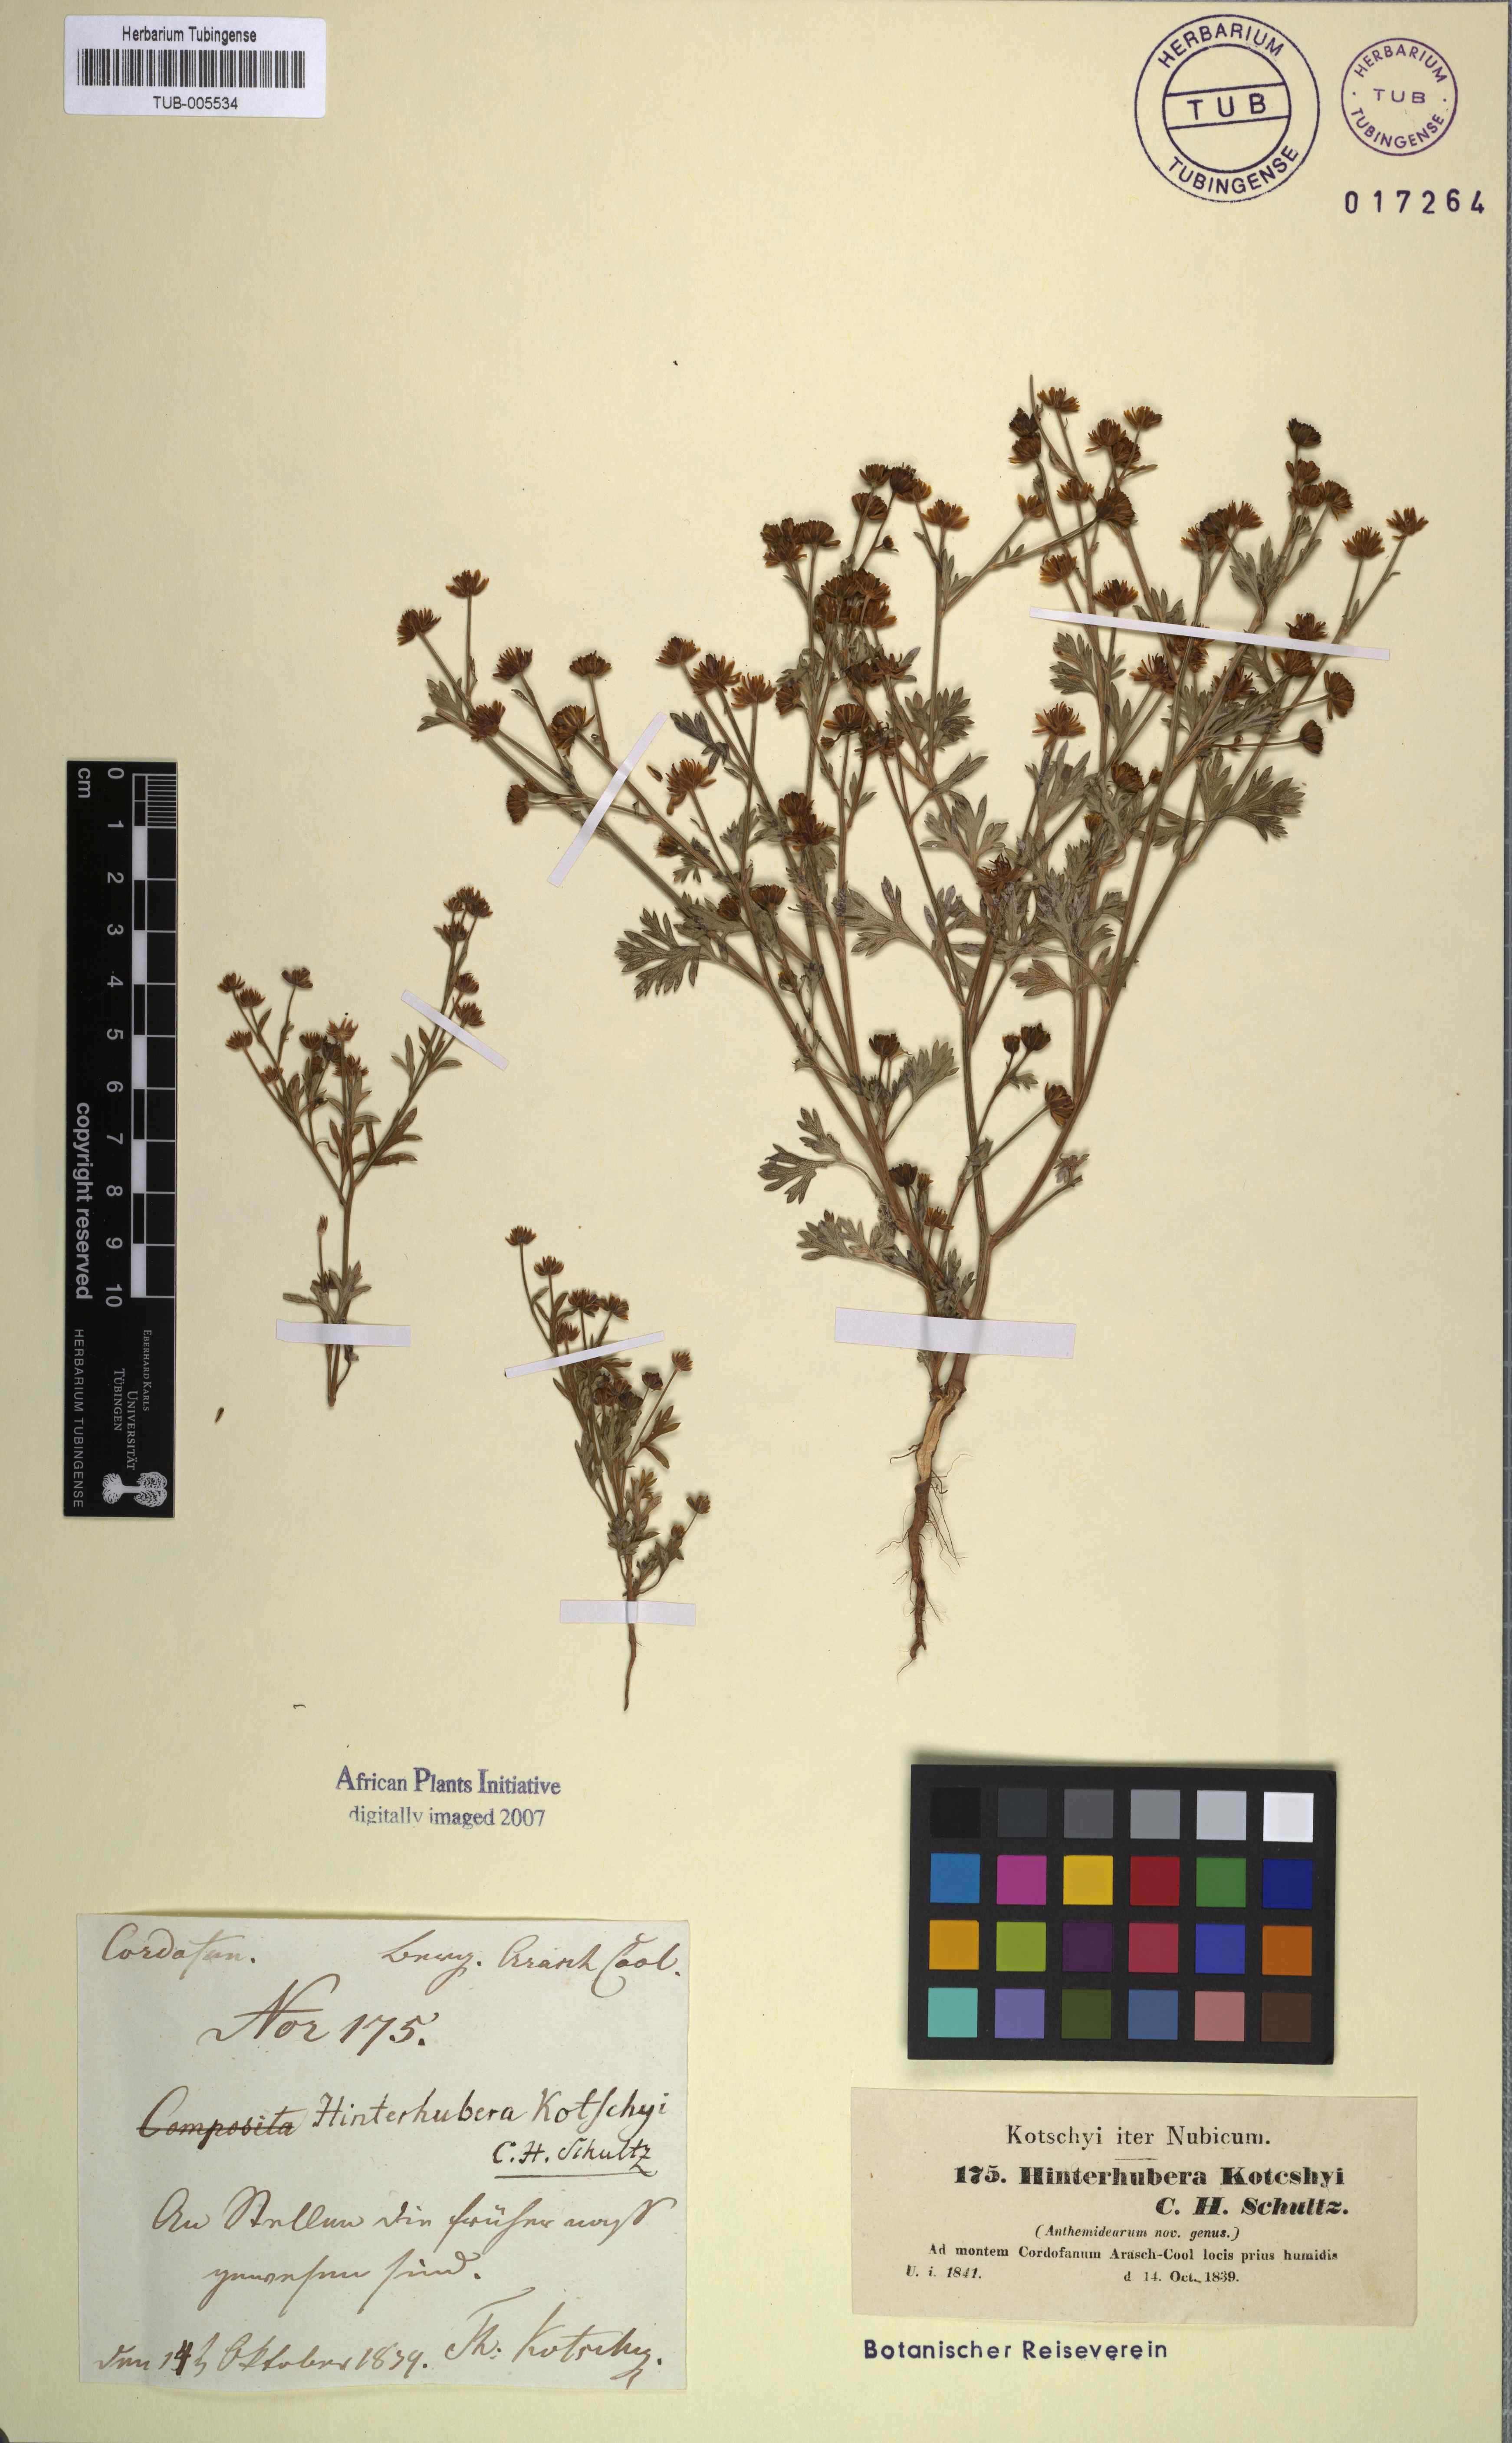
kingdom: Plantae
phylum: Tracheophyta
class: Magnoliopsida
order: Asterales
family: Asteraceae
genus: Chrysanthellum
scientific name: Chrysanthellum indicum
